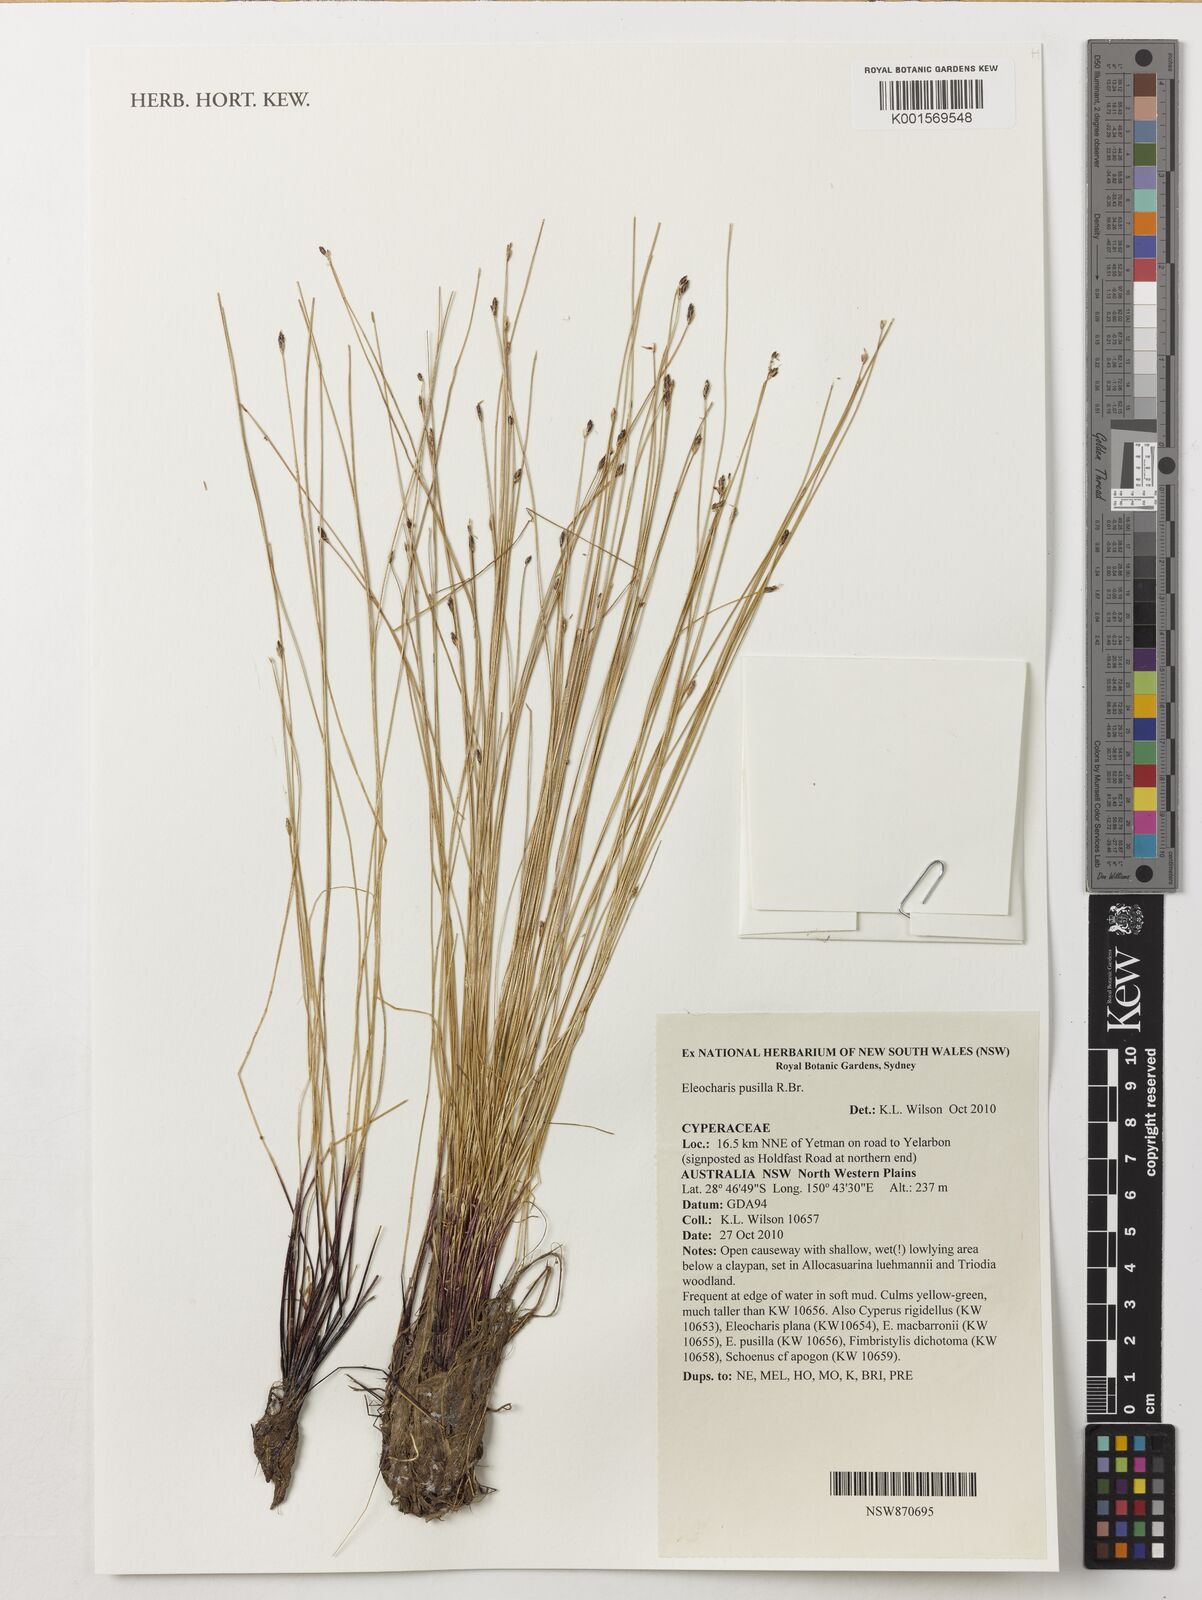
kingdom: Plantae
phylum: Tracheophyta
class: Liliopsida
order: Poales
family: Cyperaceae
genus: Eleocharis
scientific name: Eleocharis pusilla
